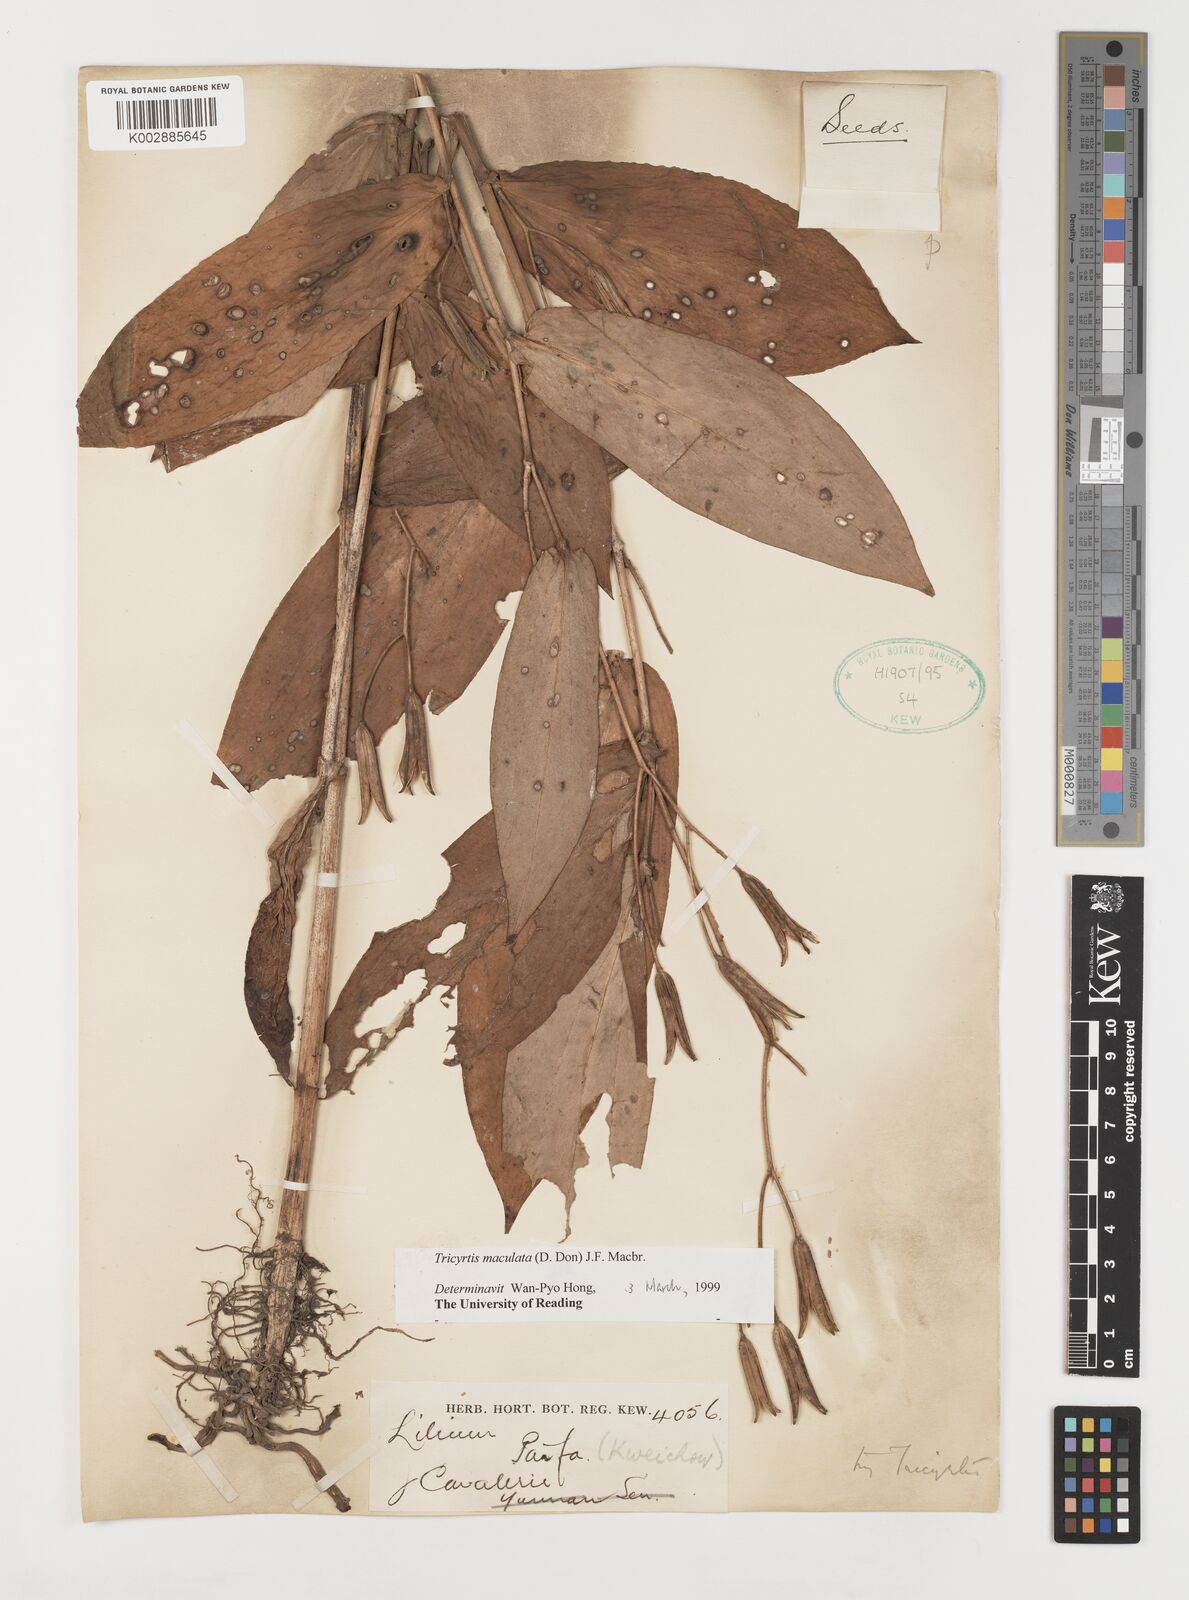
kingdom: Plantae
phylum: Tracheophyta
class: Liliopsida
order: Liliales
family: Liliaceae
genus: Tricyrtis
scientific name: Tricyrtis maculata
